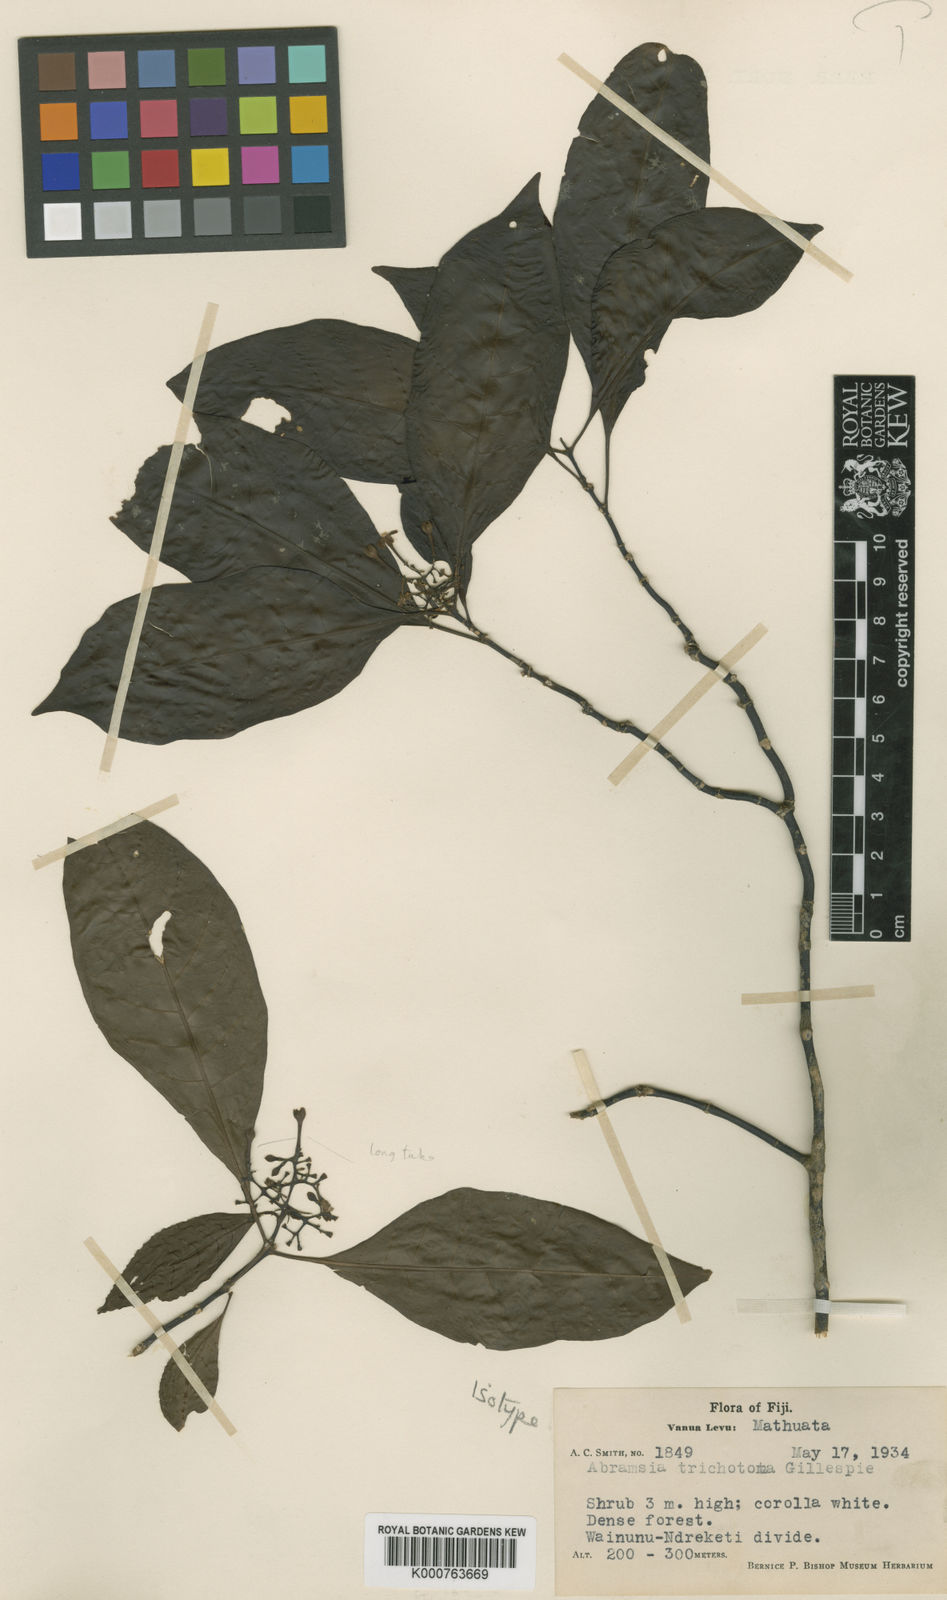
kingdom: Plantae
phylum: Tracheophyta
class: Magnoliopsida
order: Gentianales
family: Rubiaceae
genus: Airosperma
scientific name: Airosperma vanuense
